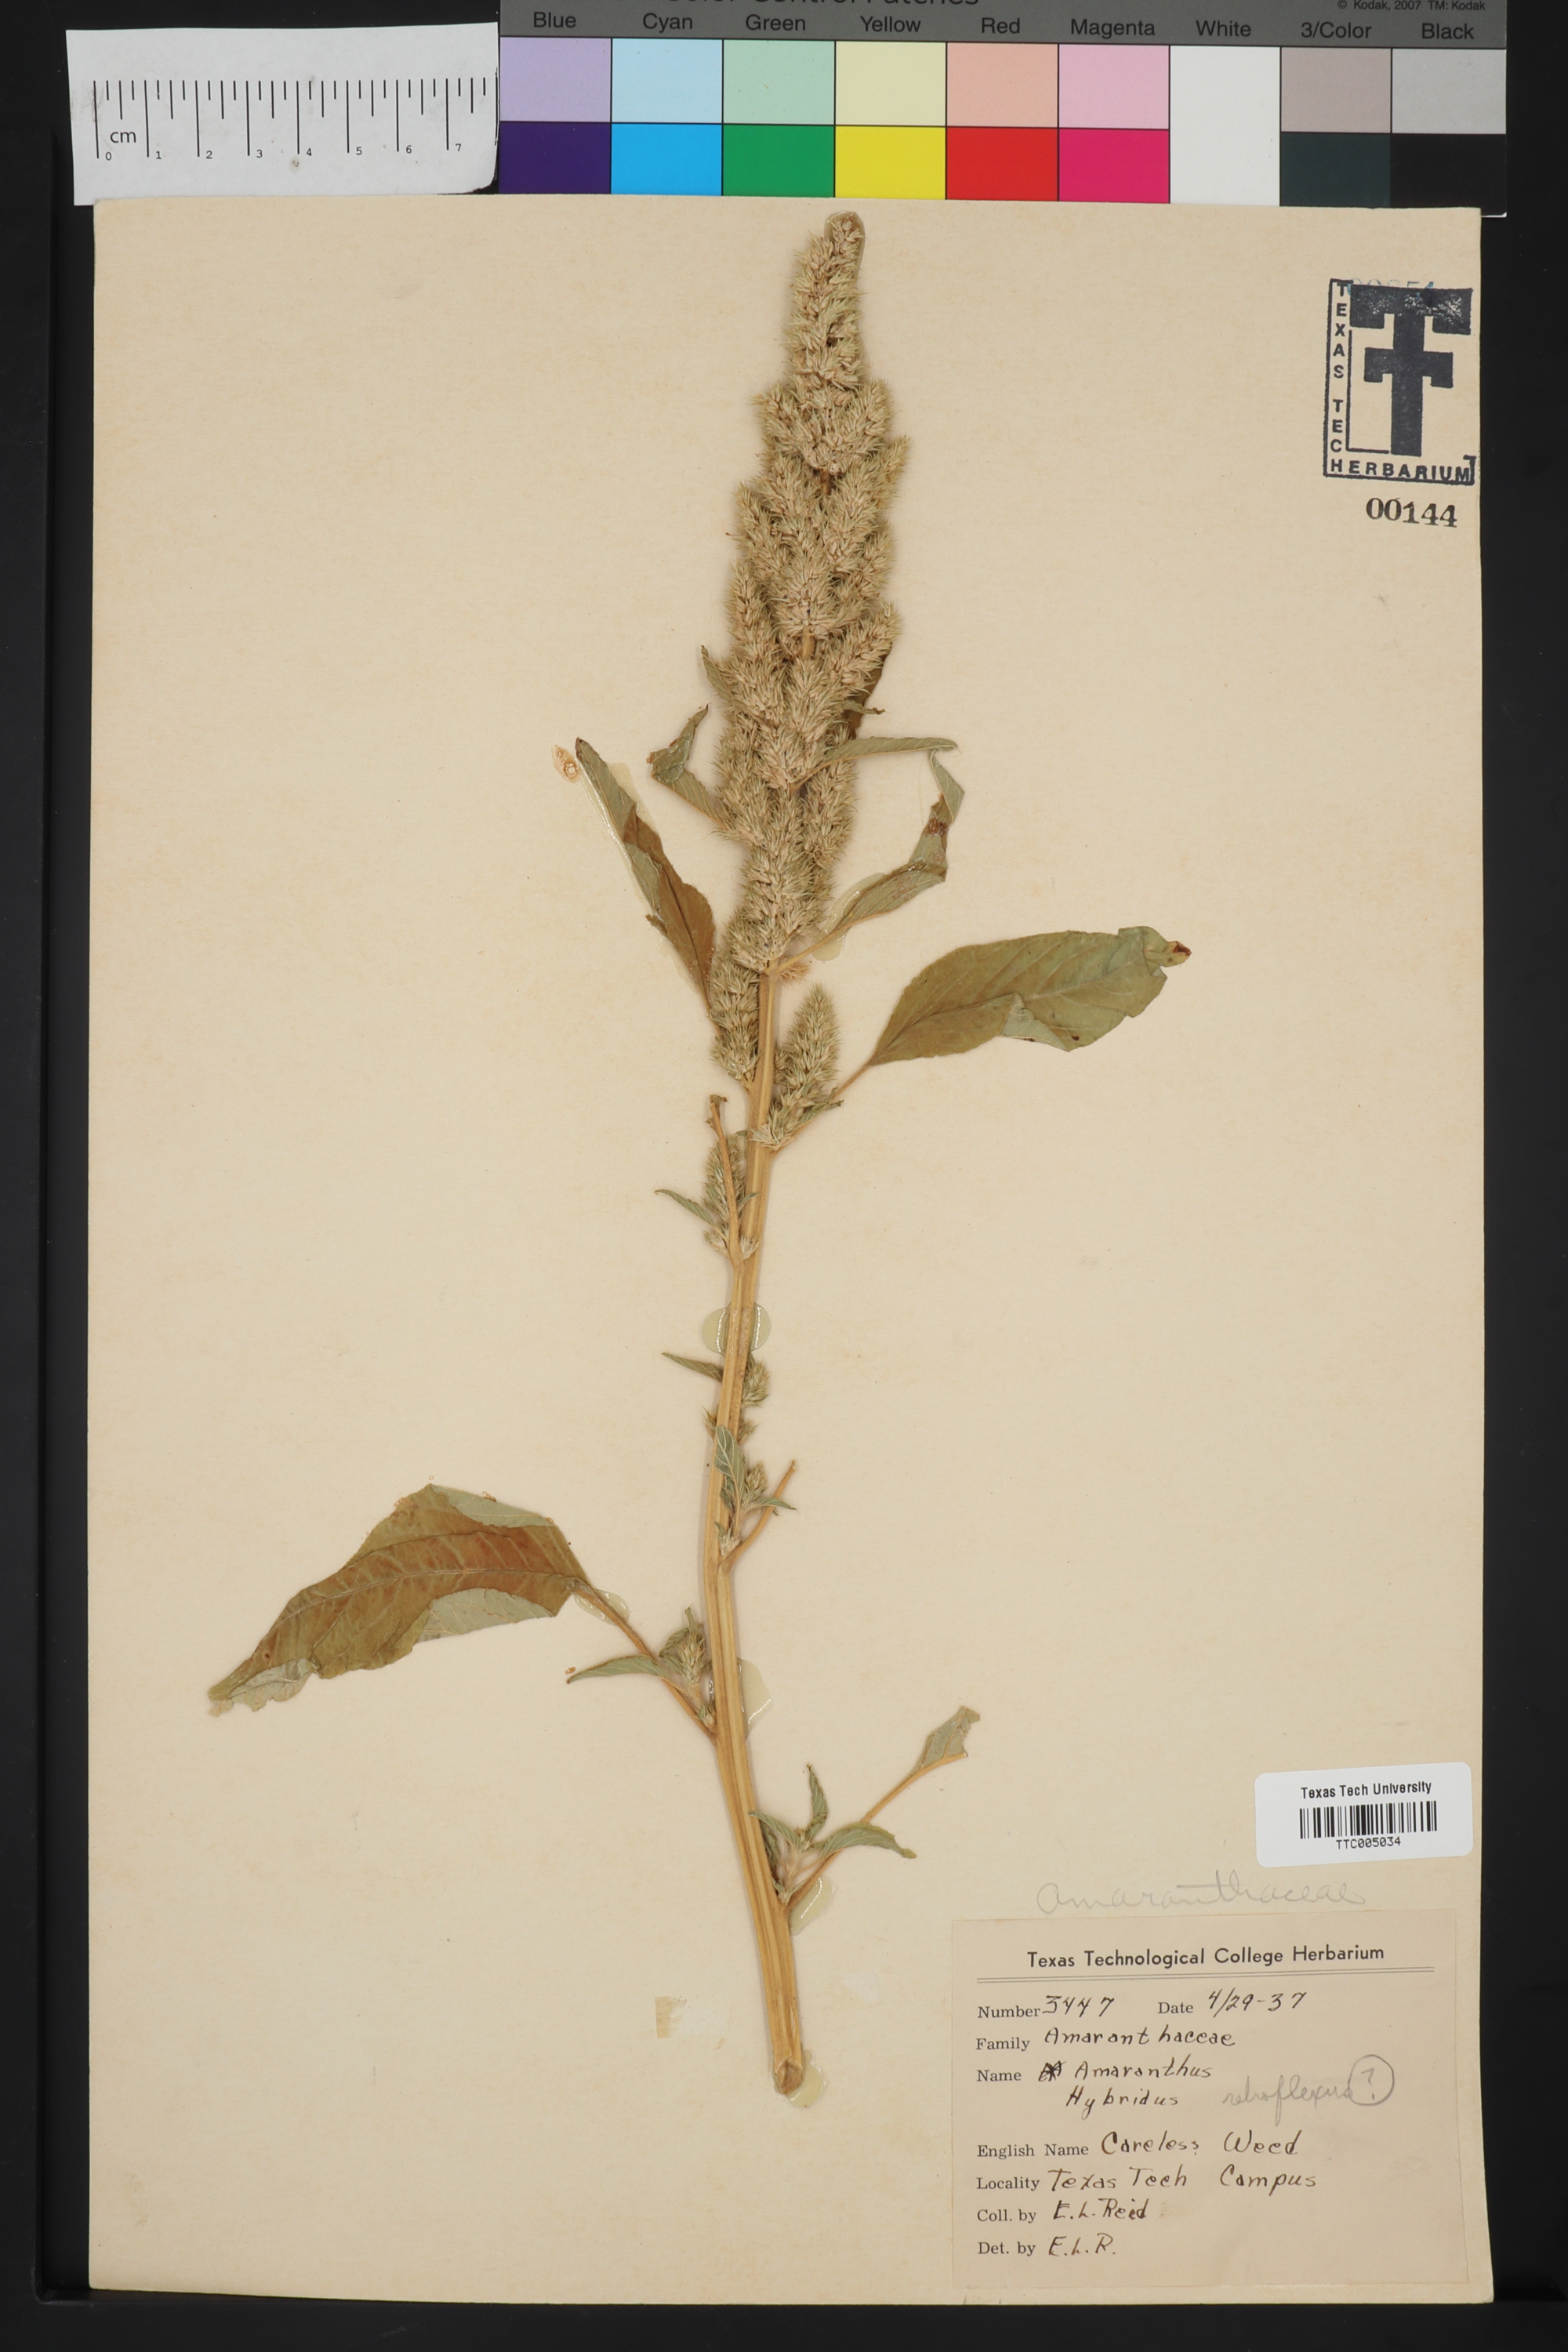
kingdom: Plantae
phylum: Tracheophyta
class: Magnoliopsida
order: Caryophyllales
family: Amaranthaceae
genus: Amaranthus
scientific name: Amaranthus retroflexus
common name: Redroot amaranth
